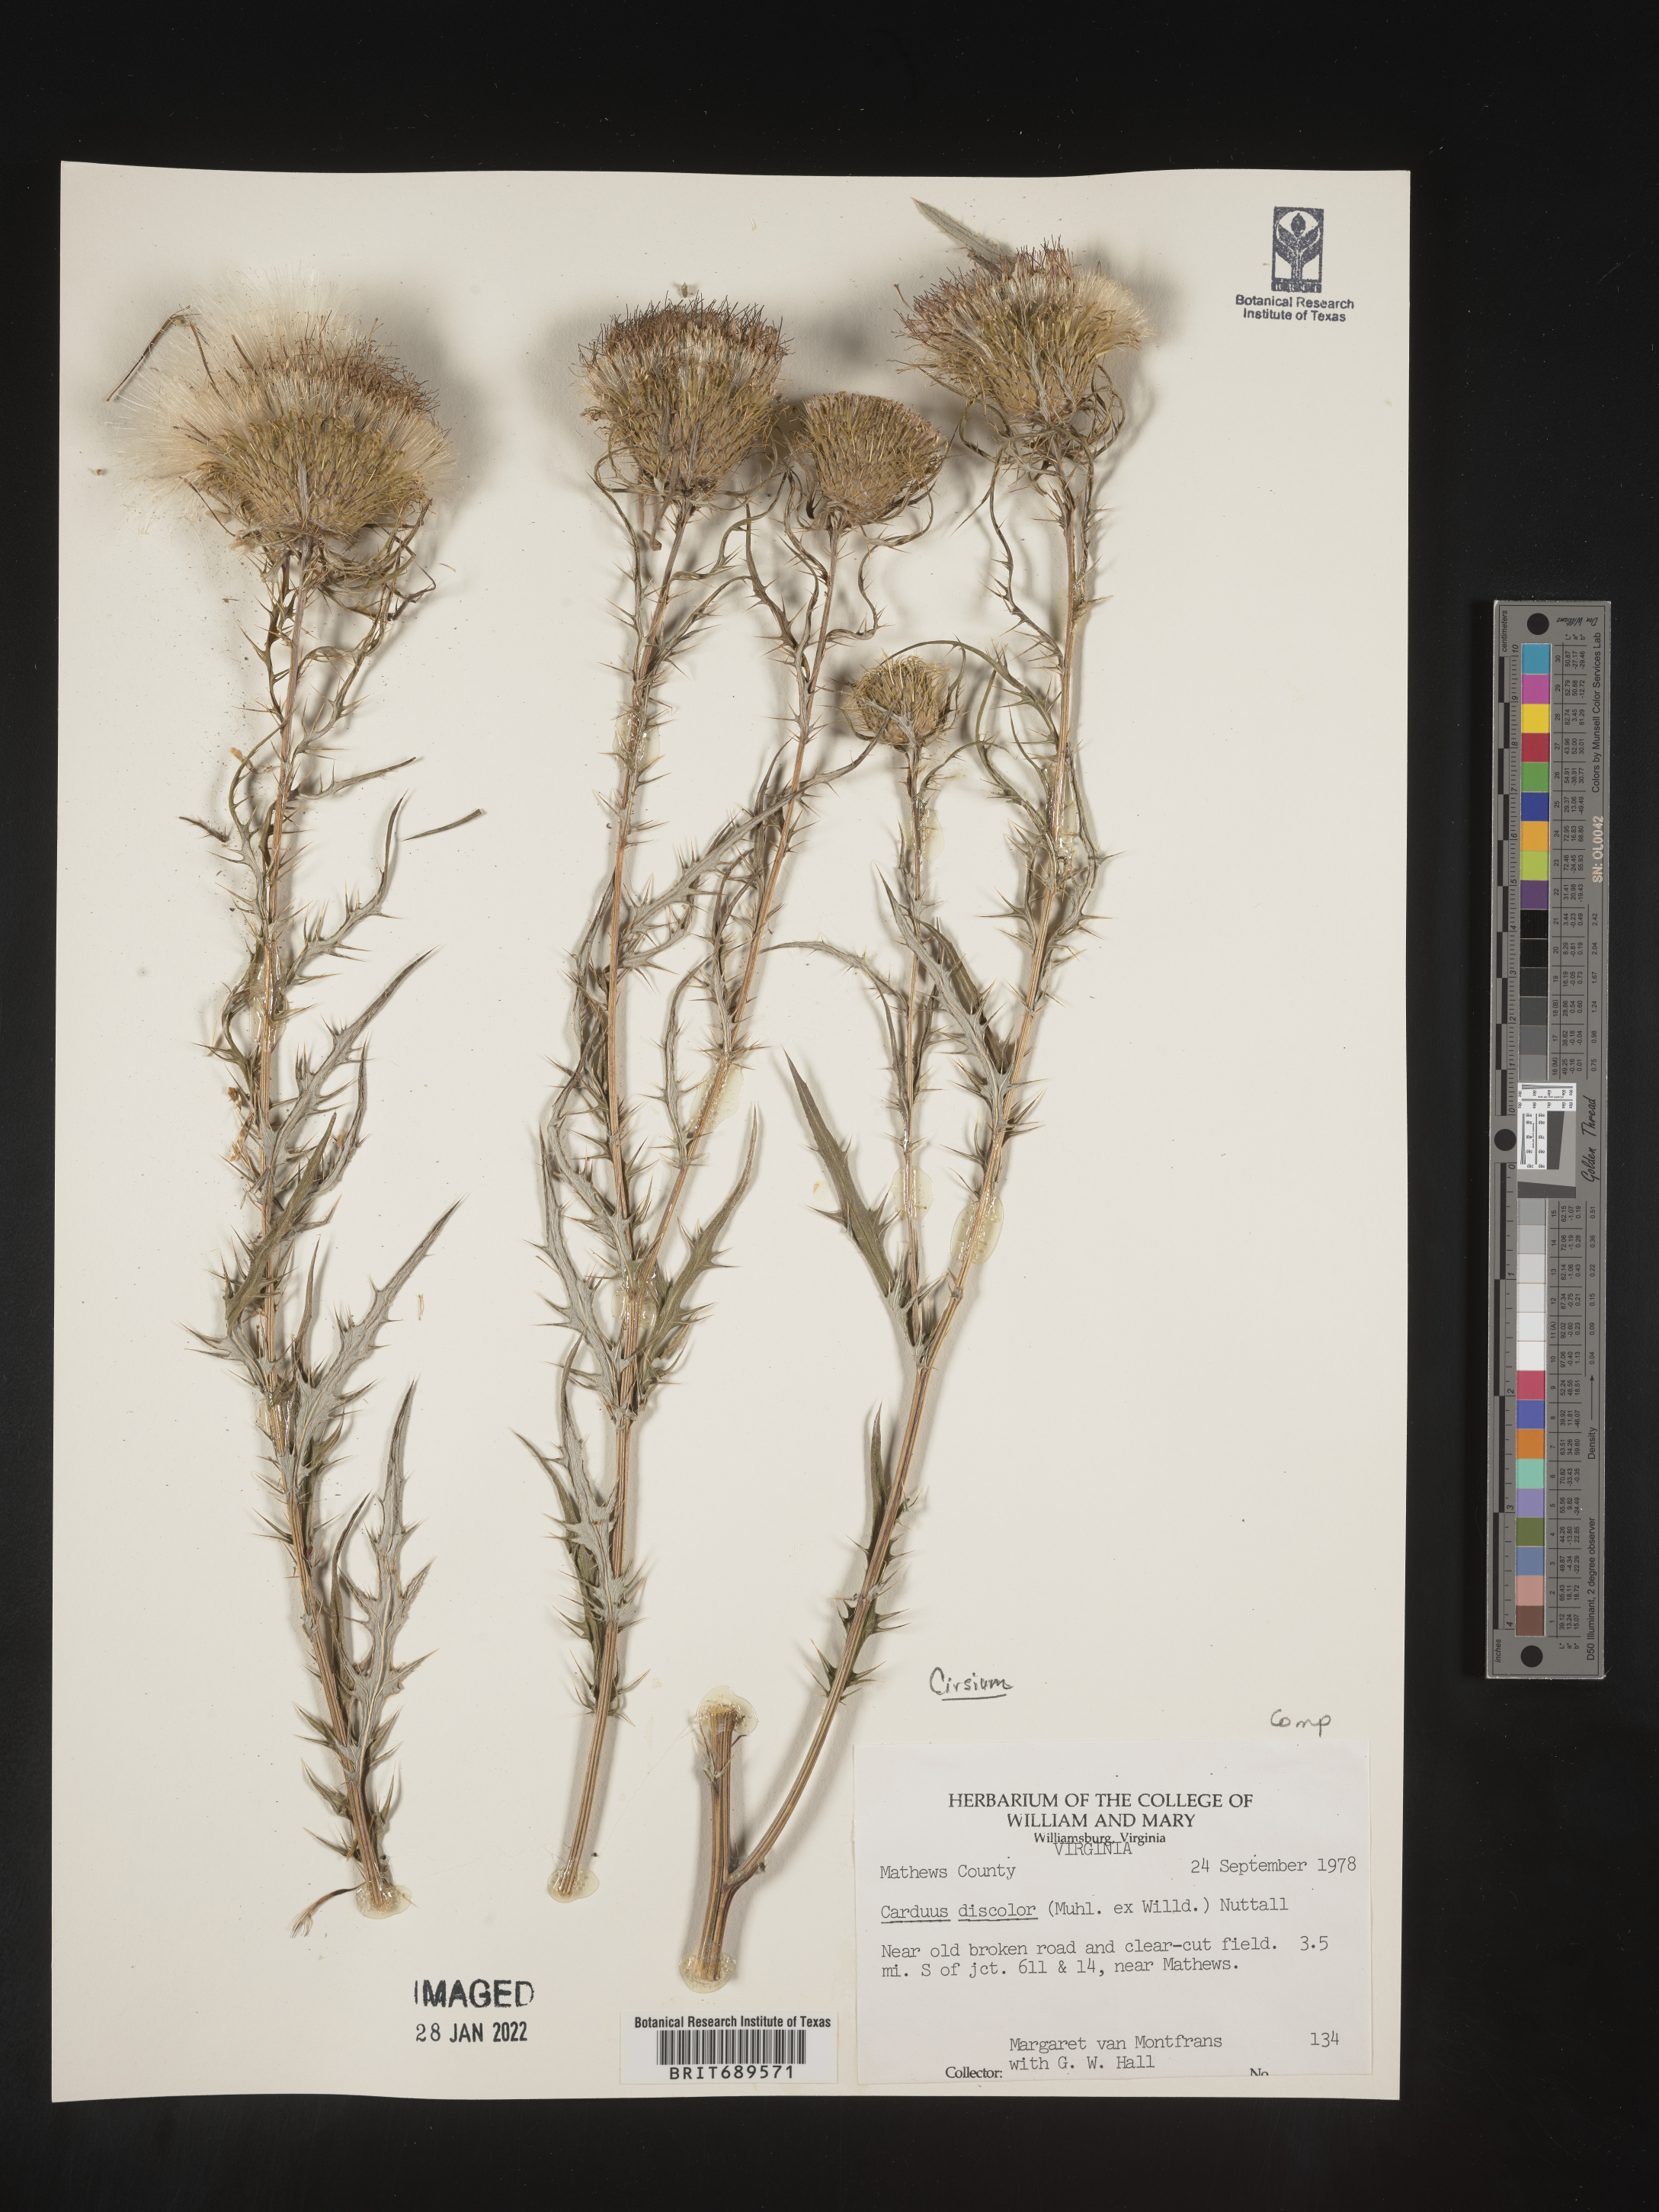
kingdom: Plantae
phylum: Tracheophyta
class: Magnoliopsida
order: Asterales
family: Asteraceae
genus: Cirsium
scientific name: Cirsium discolor
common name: Field thistle
